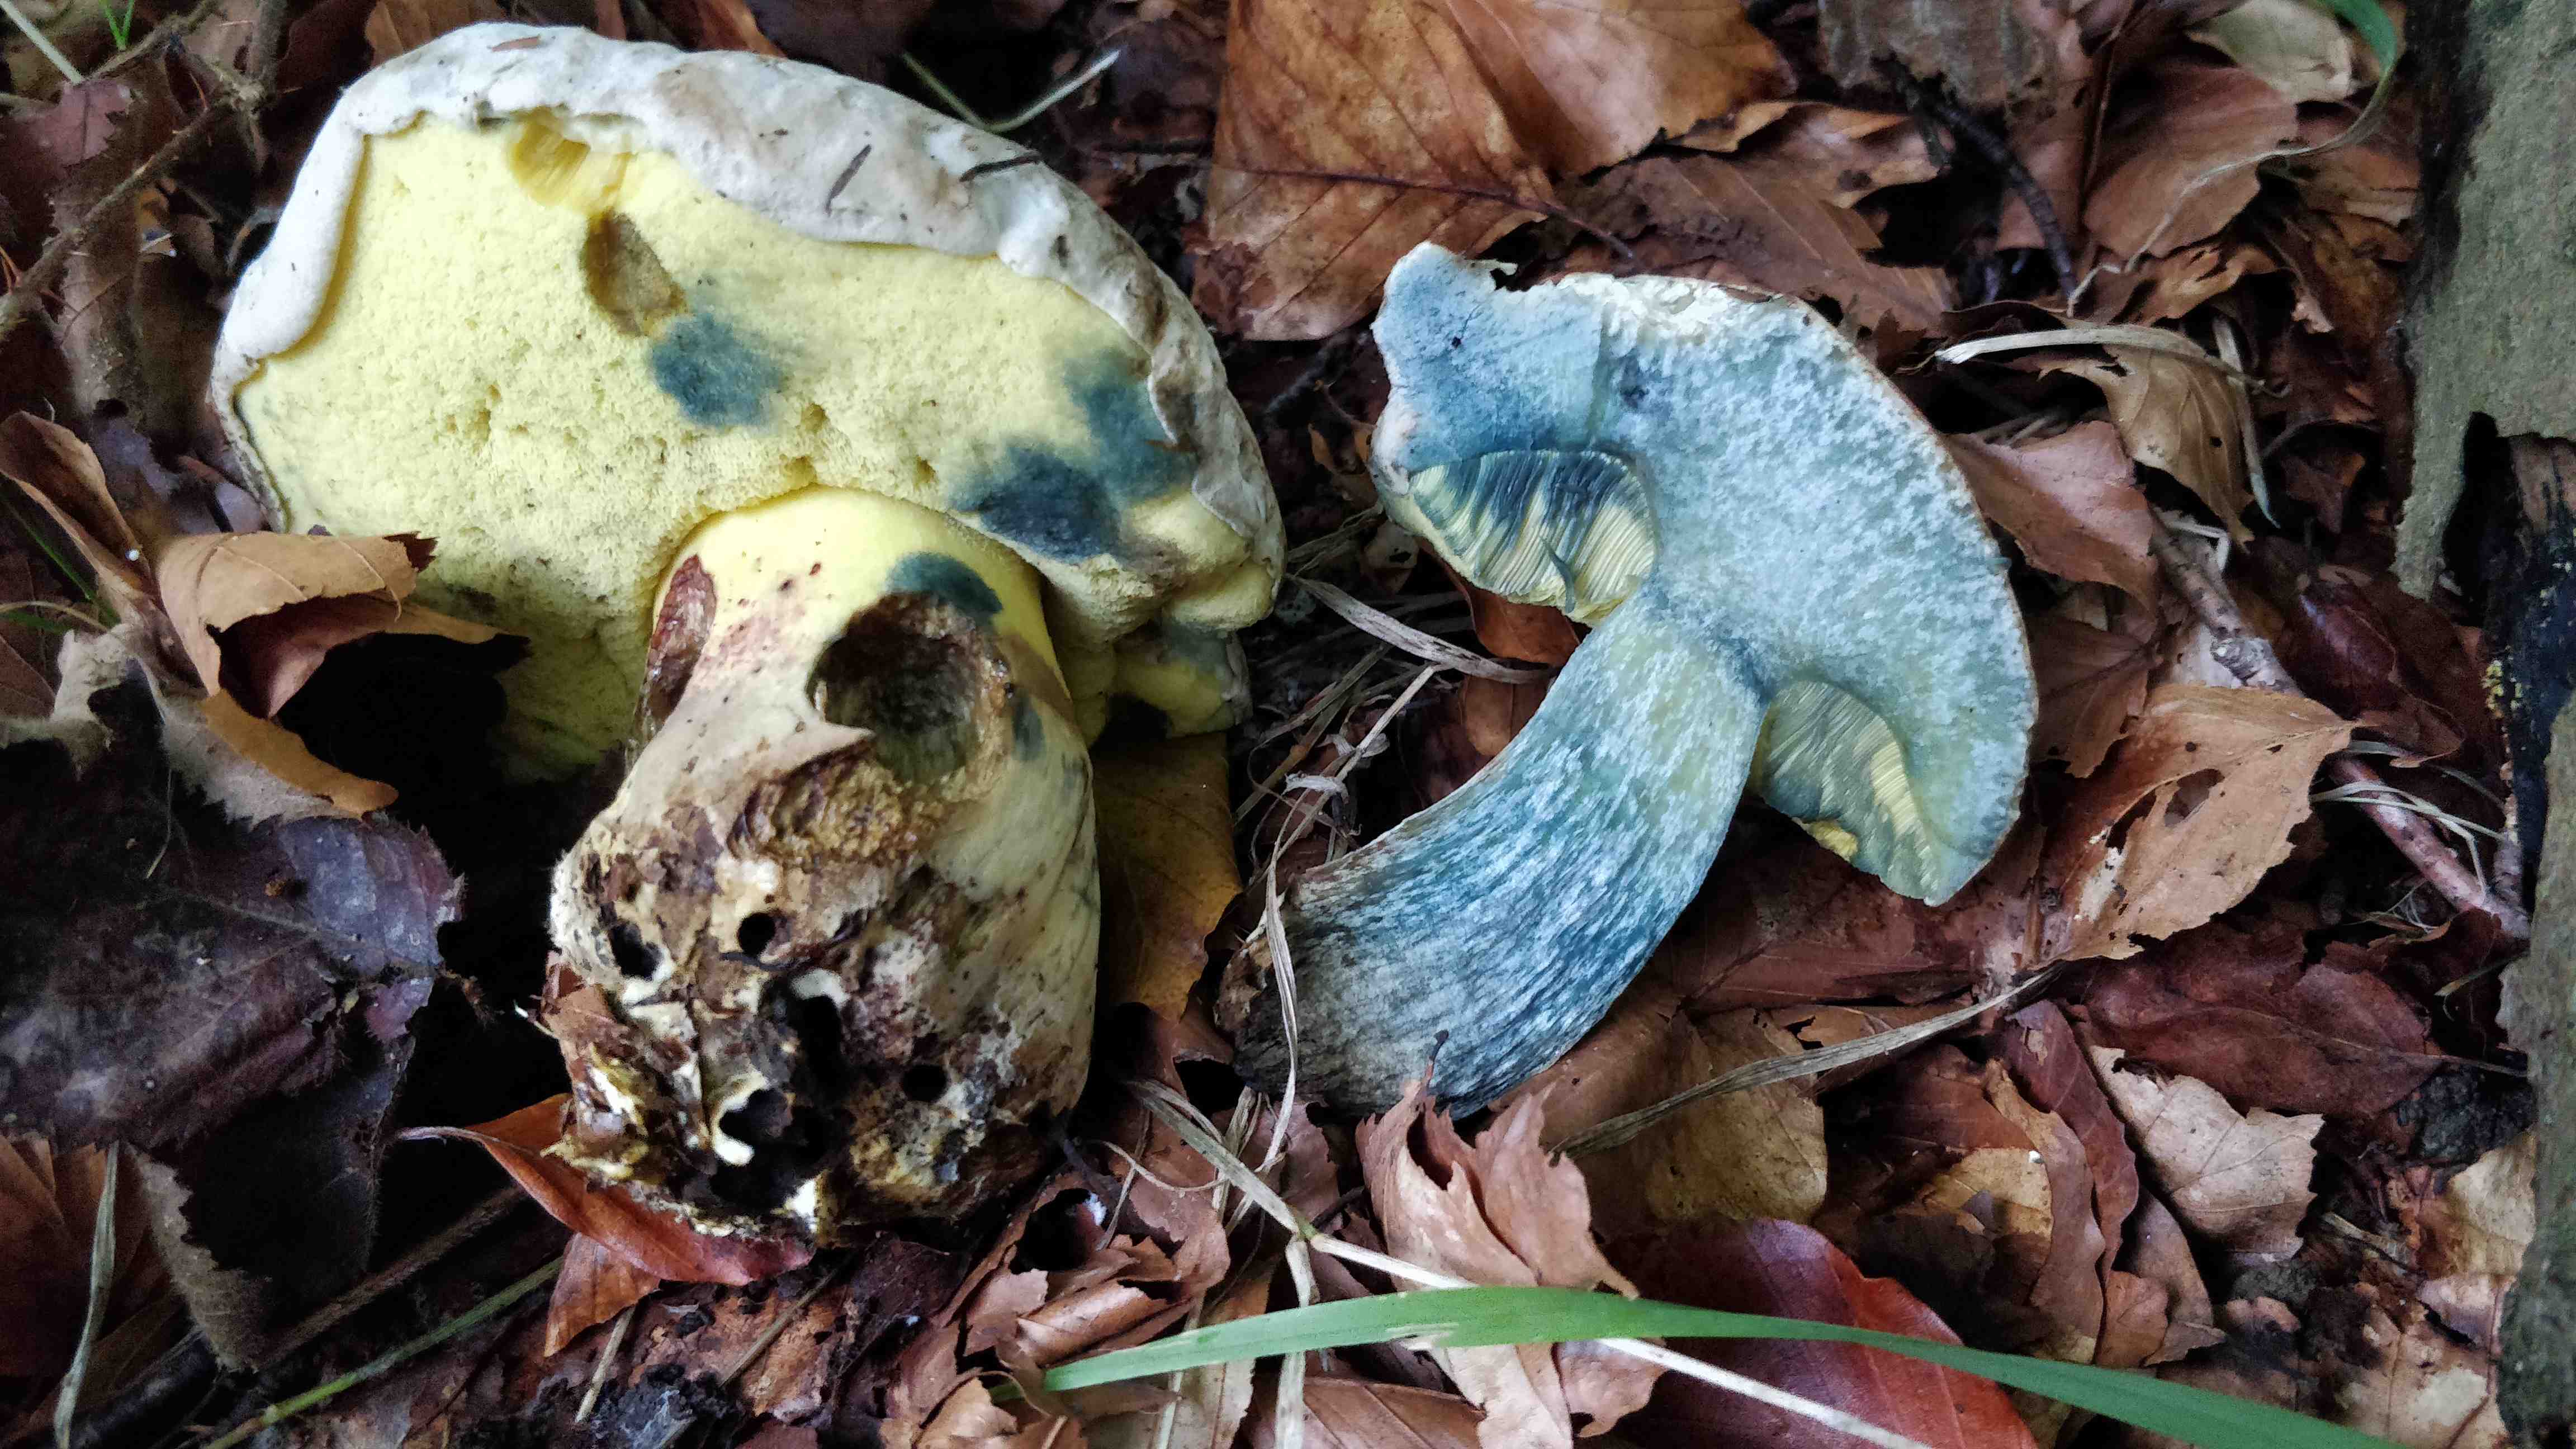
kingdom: Fungi
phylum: Basidiomycota
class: Agaricomycetes
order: Boletales
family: Boletaceae
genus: Caloboletus
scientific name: Caloboletus radicans
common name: rod-rørhat
